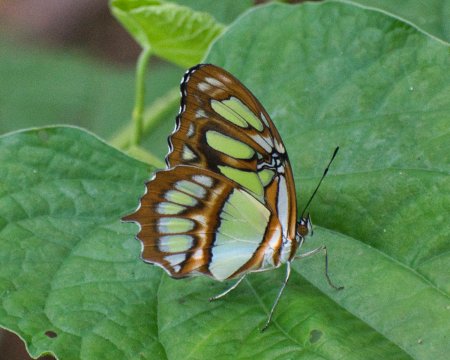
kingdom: Animalia
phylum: Arthropoda
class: Insecta
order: Lepidoptera
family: Nymphalidae
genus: Siproeta
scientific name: Siproeta stelenes
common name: Malachite
